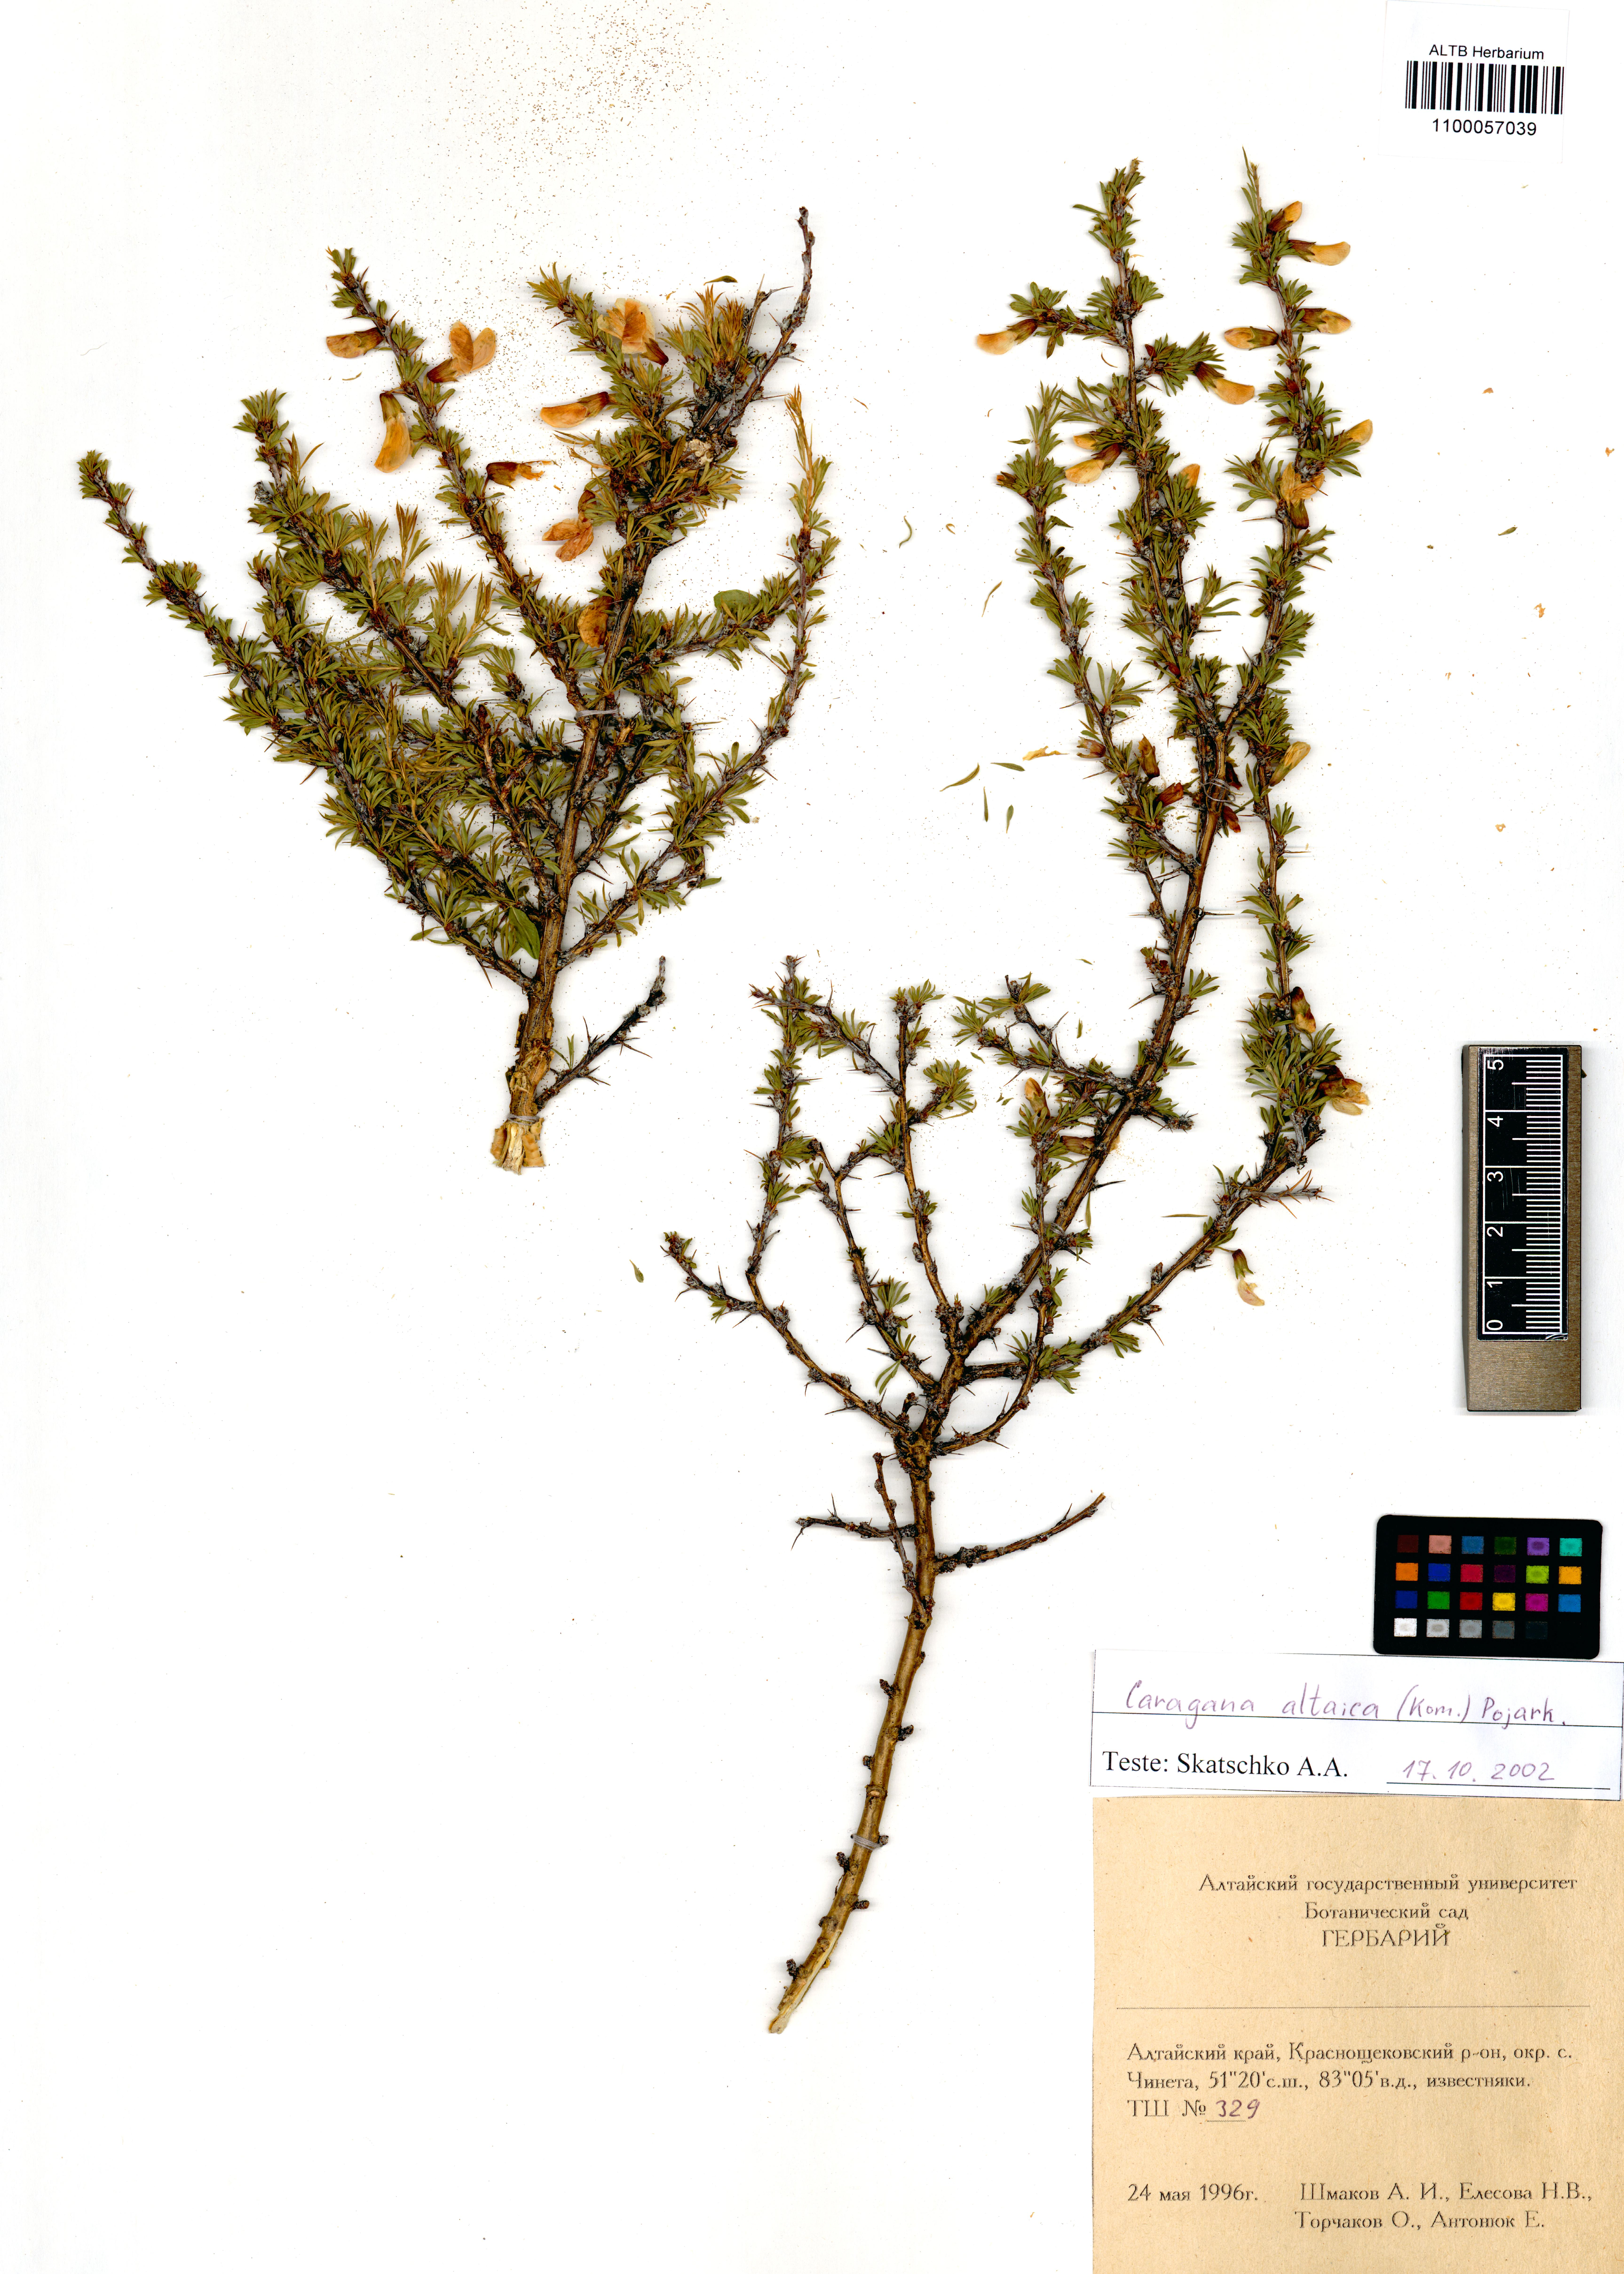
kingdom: Plantae
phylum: Tracheophyta
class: Magnoliopsida
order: Fabales
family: Fabaceae
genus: Caragana
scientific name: Caragana pygmaea
